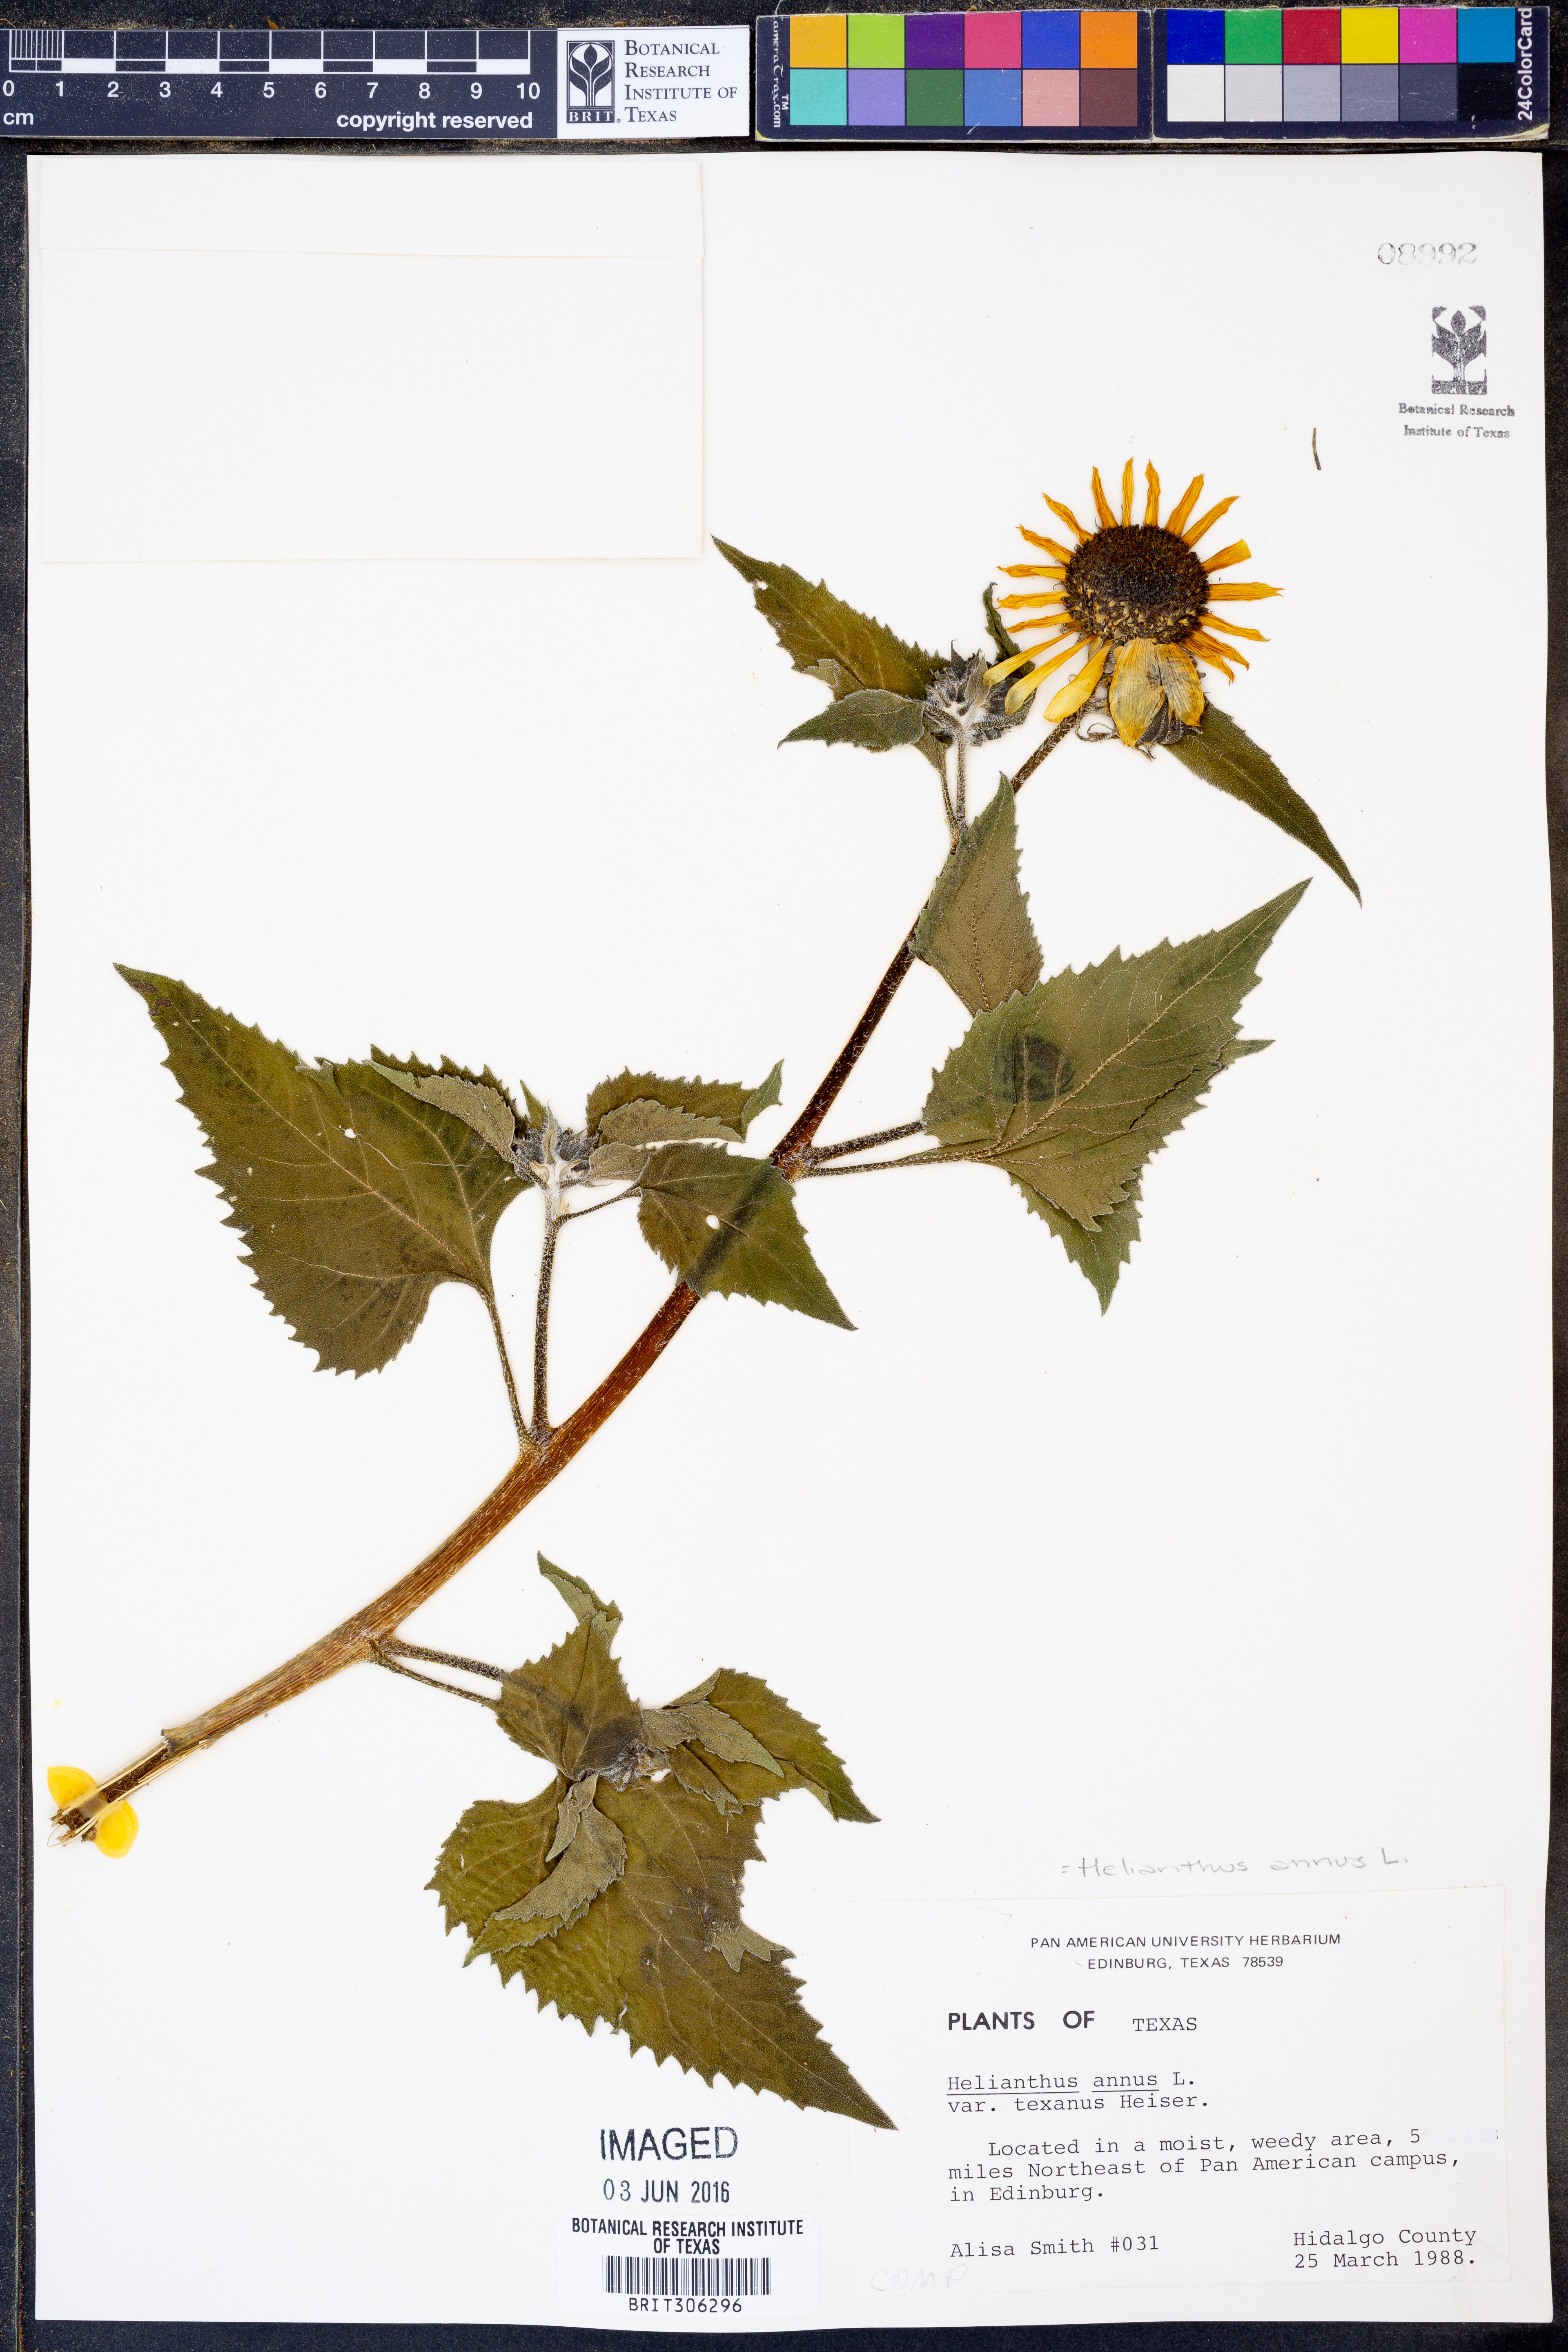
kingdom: Plantae
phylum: Tracheophyta
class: Magnoliopsida
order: Asterales
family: Asteraceae
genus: Helianthus
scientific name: Helianthus annuus
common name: Sunflower
